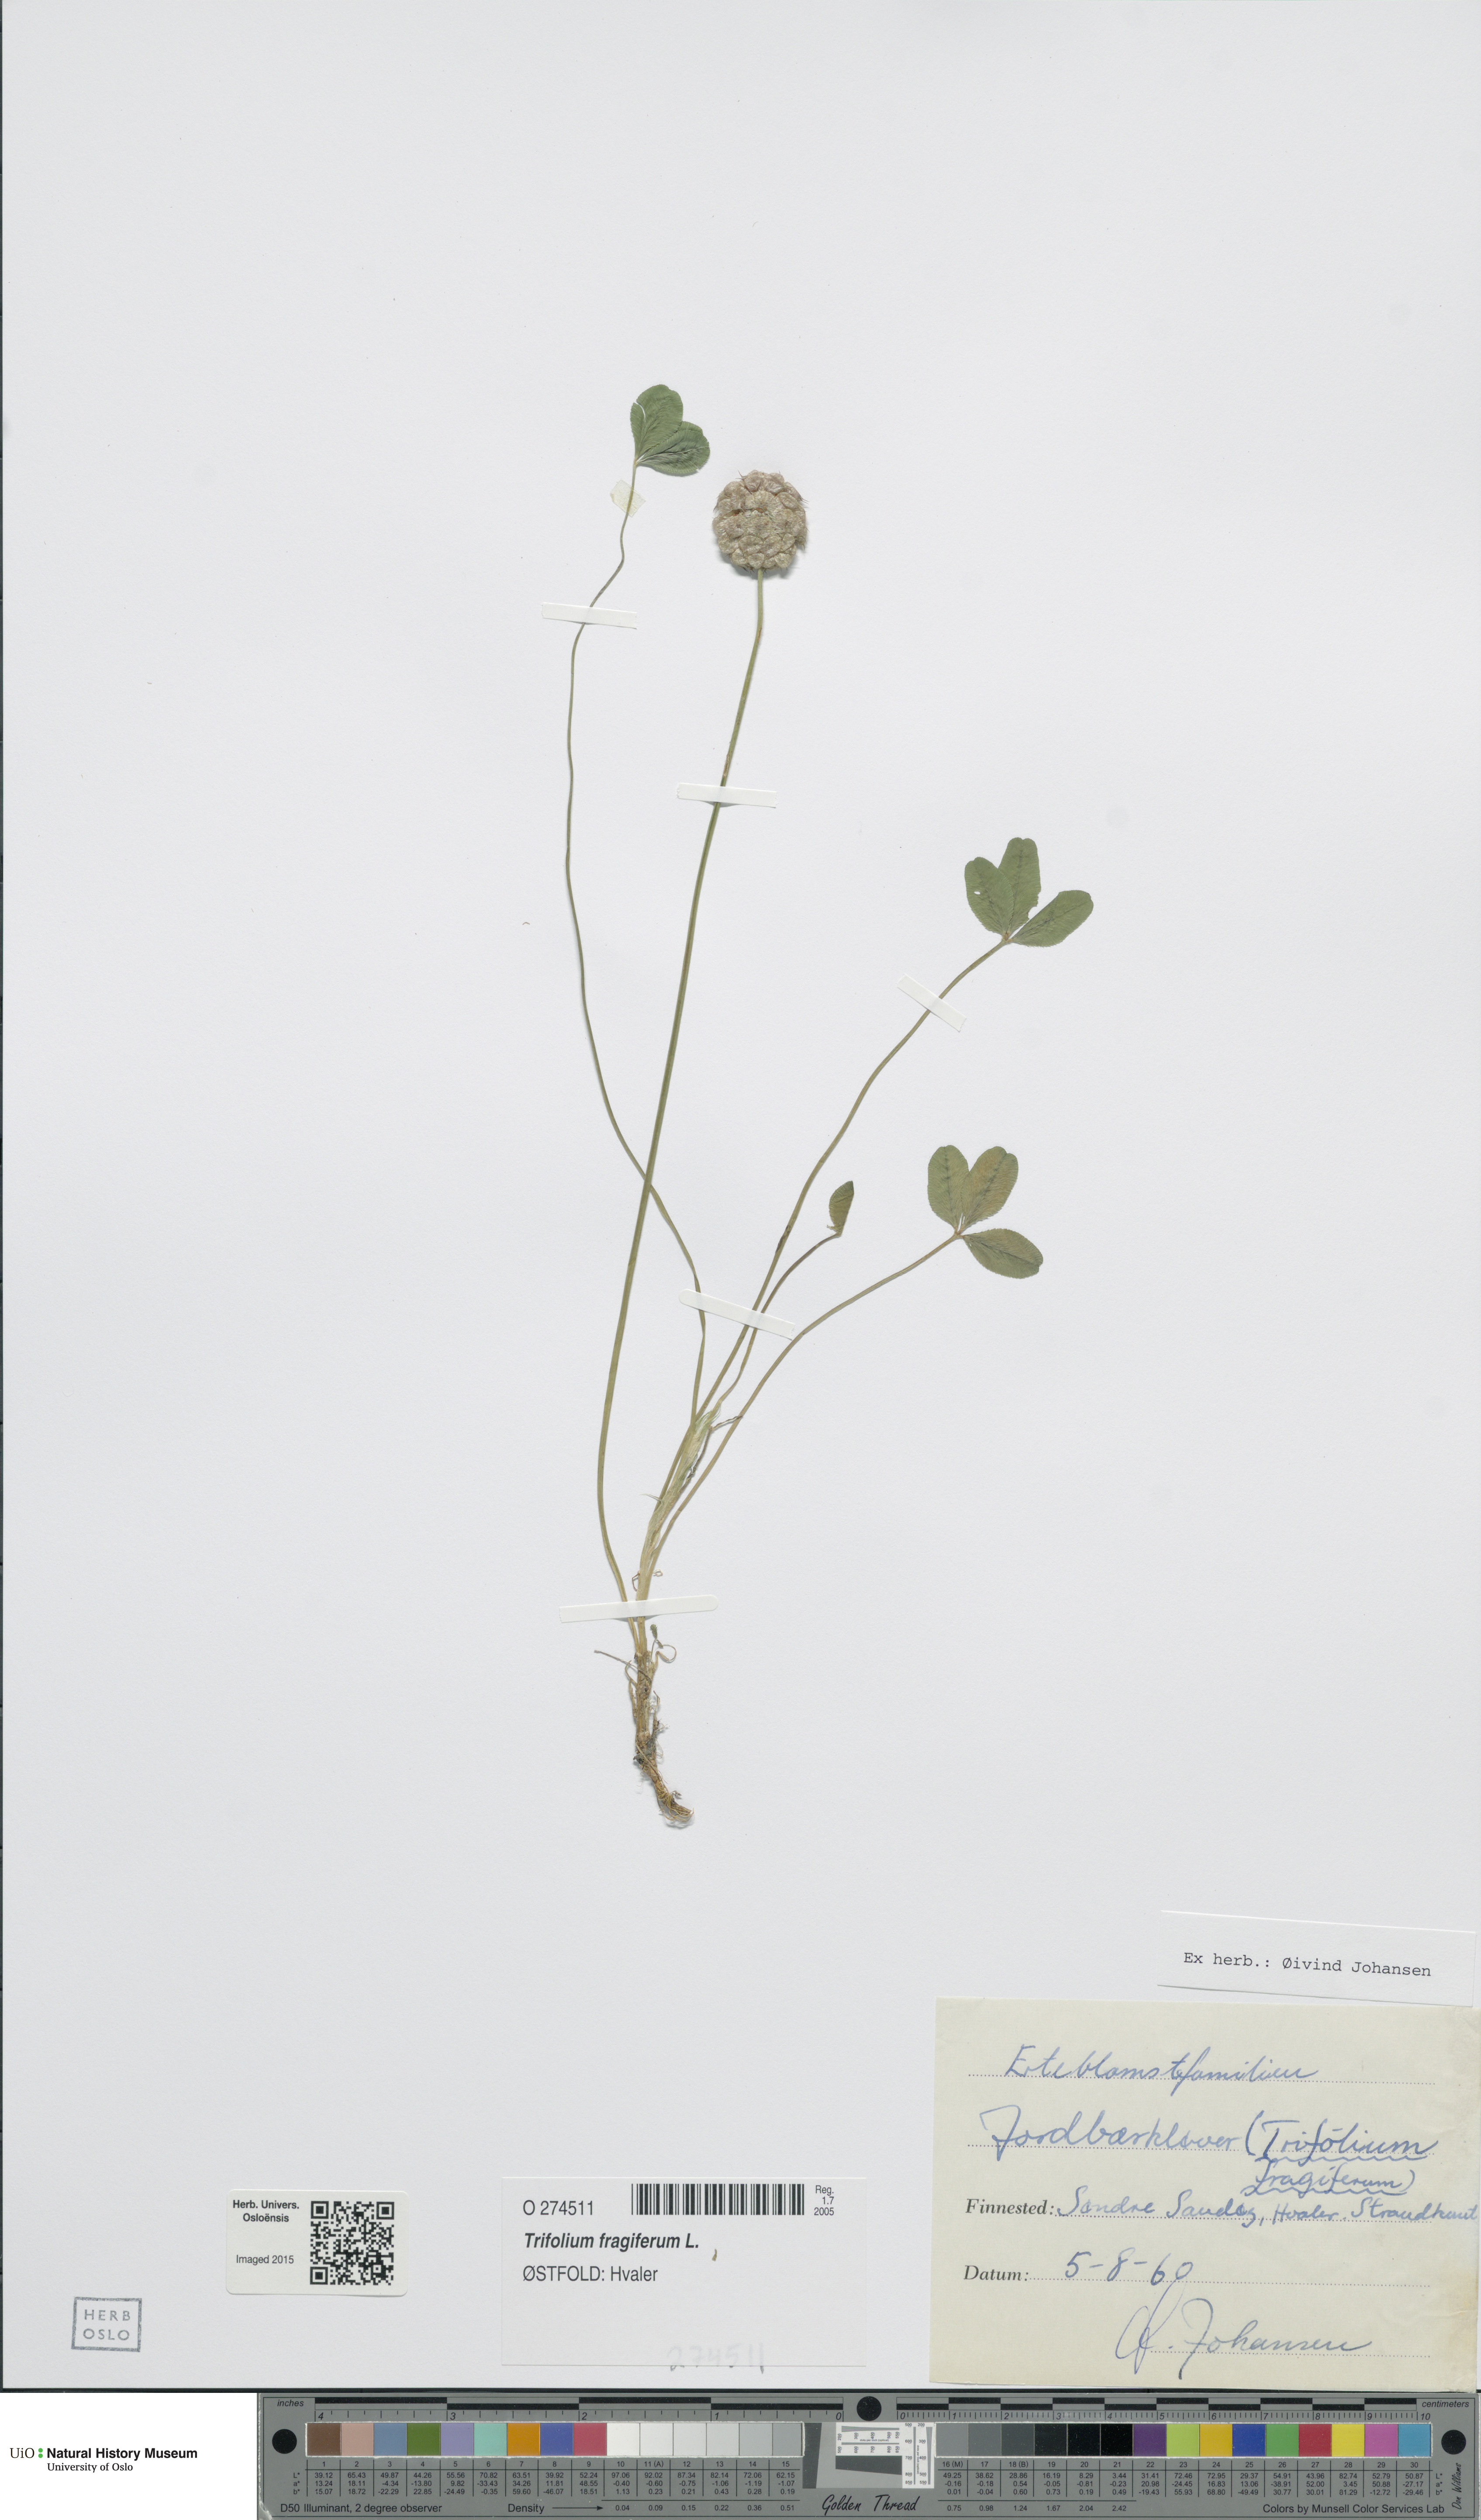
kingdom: Plantae
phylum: Tracheophyta
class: Magnoliopsida
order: Fabales
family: Fabaceae
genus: Trifolium
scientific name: Trifolium fragiferum
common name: Strawberry clover
